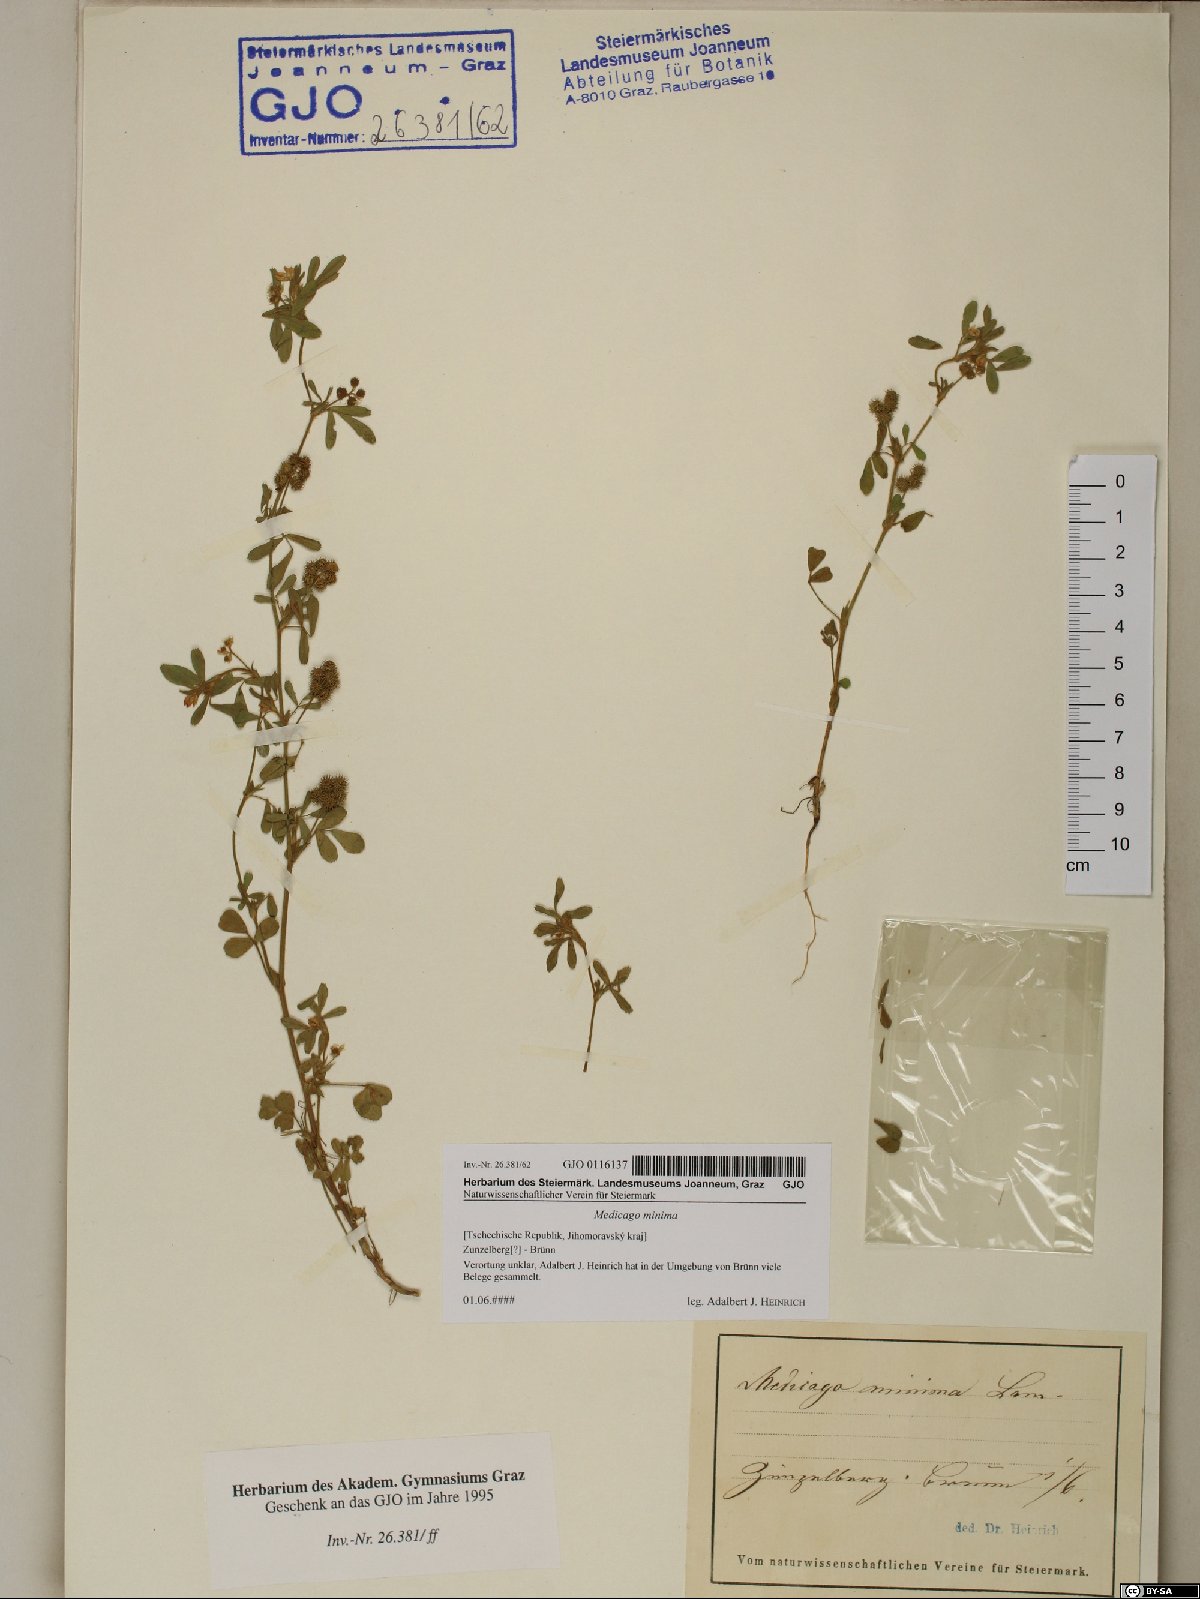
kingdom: Plantae
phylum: Tracheophyta
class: Magnoliopsida
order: Fabales
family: Fabaceae
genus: Medicago
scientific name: Medicago minima
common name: Little bur-clover
